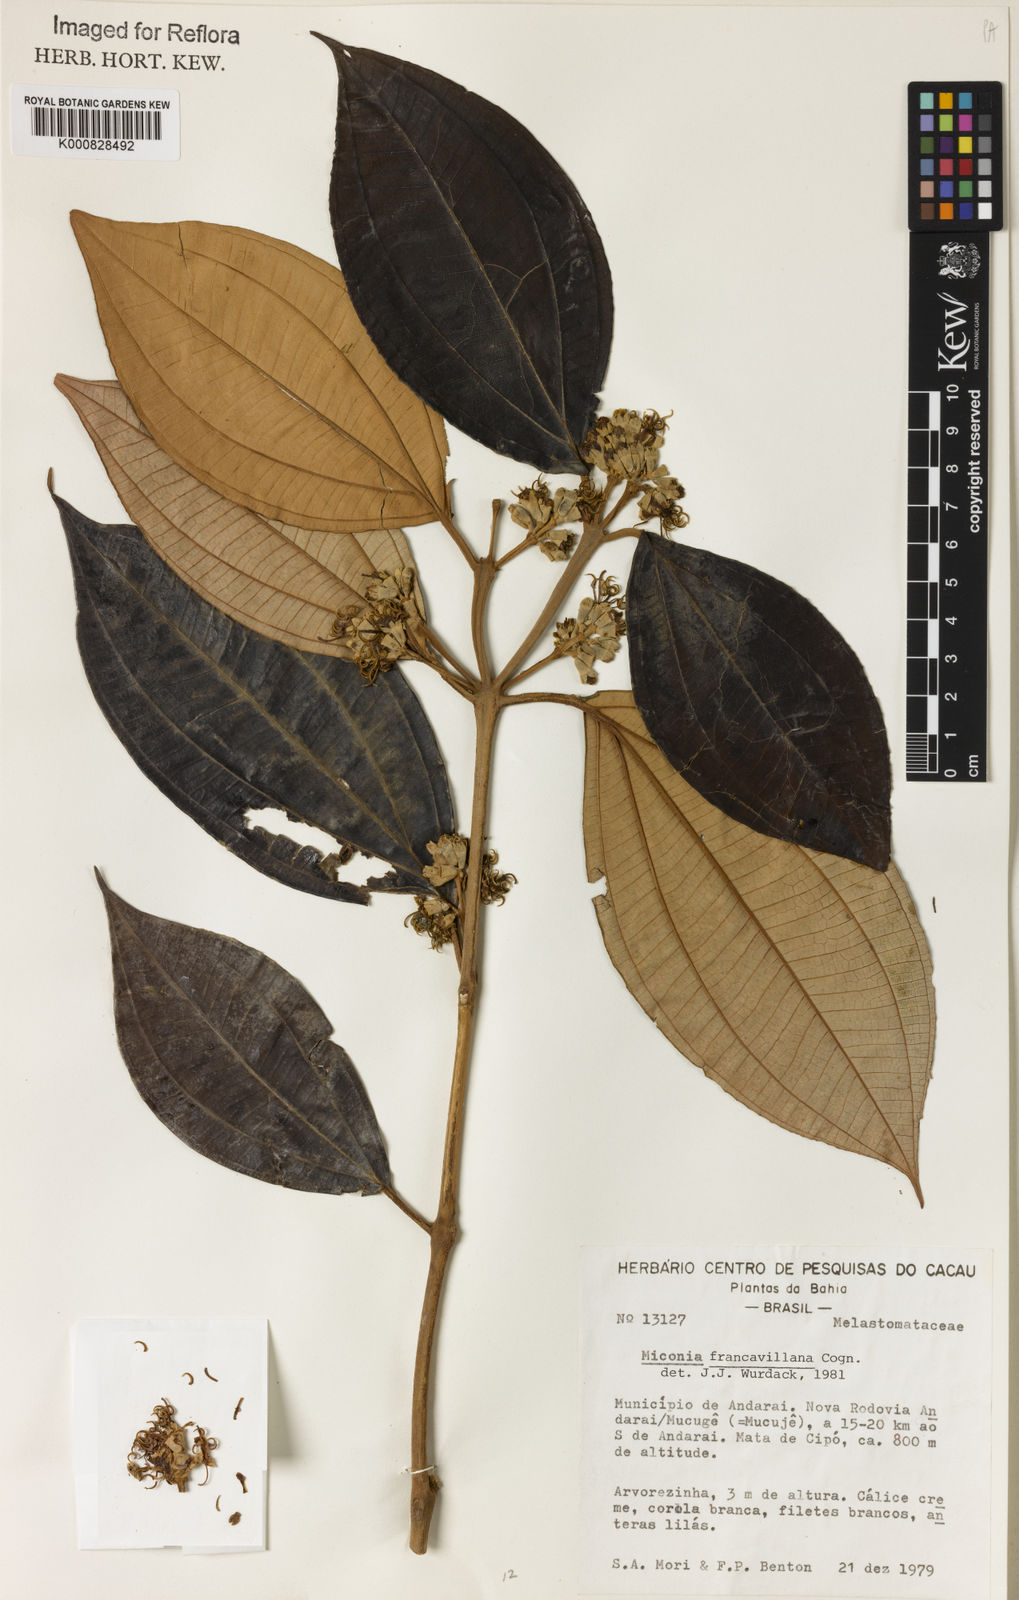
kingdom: Plantae
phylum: Tracheophyta
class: Magnoliopsida
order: Myrtales
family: Melastomataceae
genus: Miconia
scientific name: Miconia francavillana
